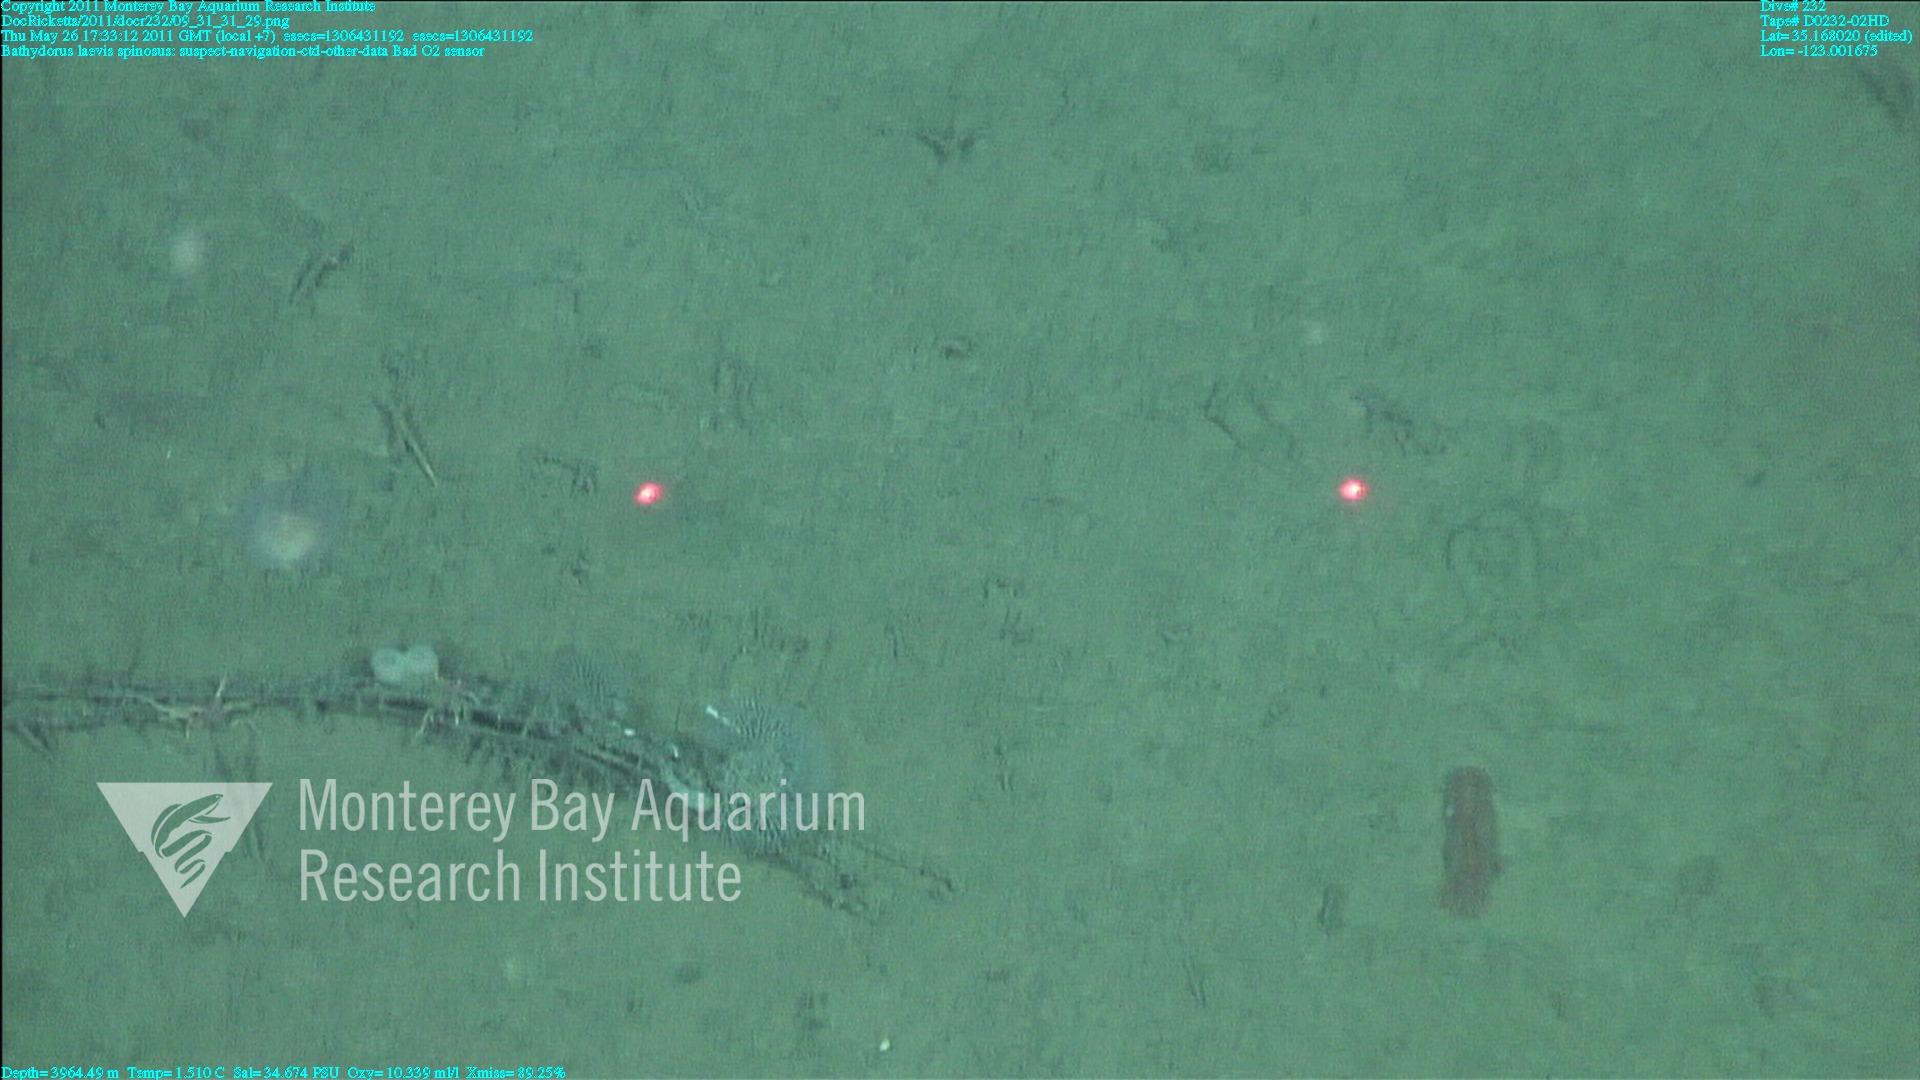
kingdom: Animalia
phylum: Porifera
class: Hexactinellida
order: Lyssacinosida
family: Rossellidae
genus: Bathydorus
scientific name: Bathydorus spinosus
